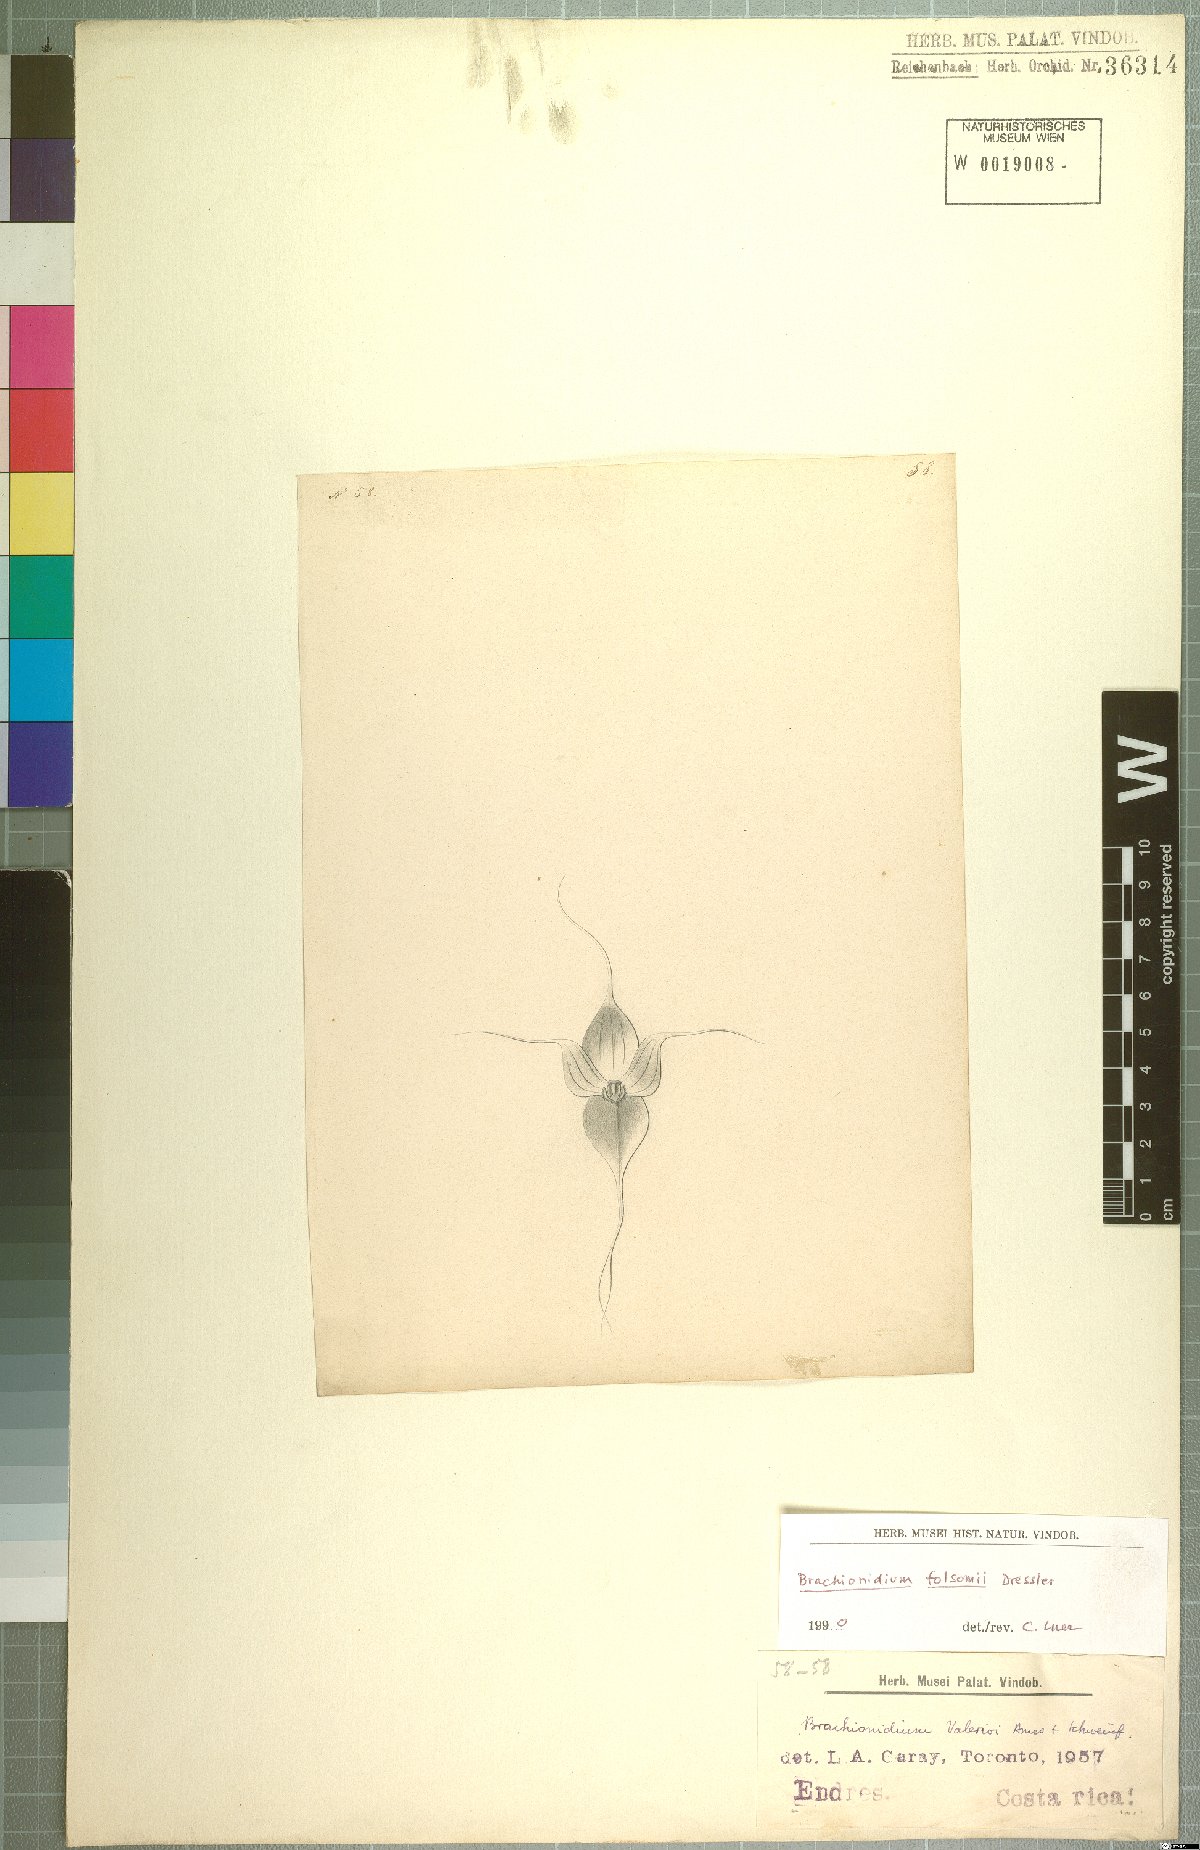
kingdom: Plantae
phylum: Tracheophyta
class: Liliopsida
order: Asparagales
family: Orchidaceae
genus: Brachionidium
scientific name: Brachionidium folsomii
